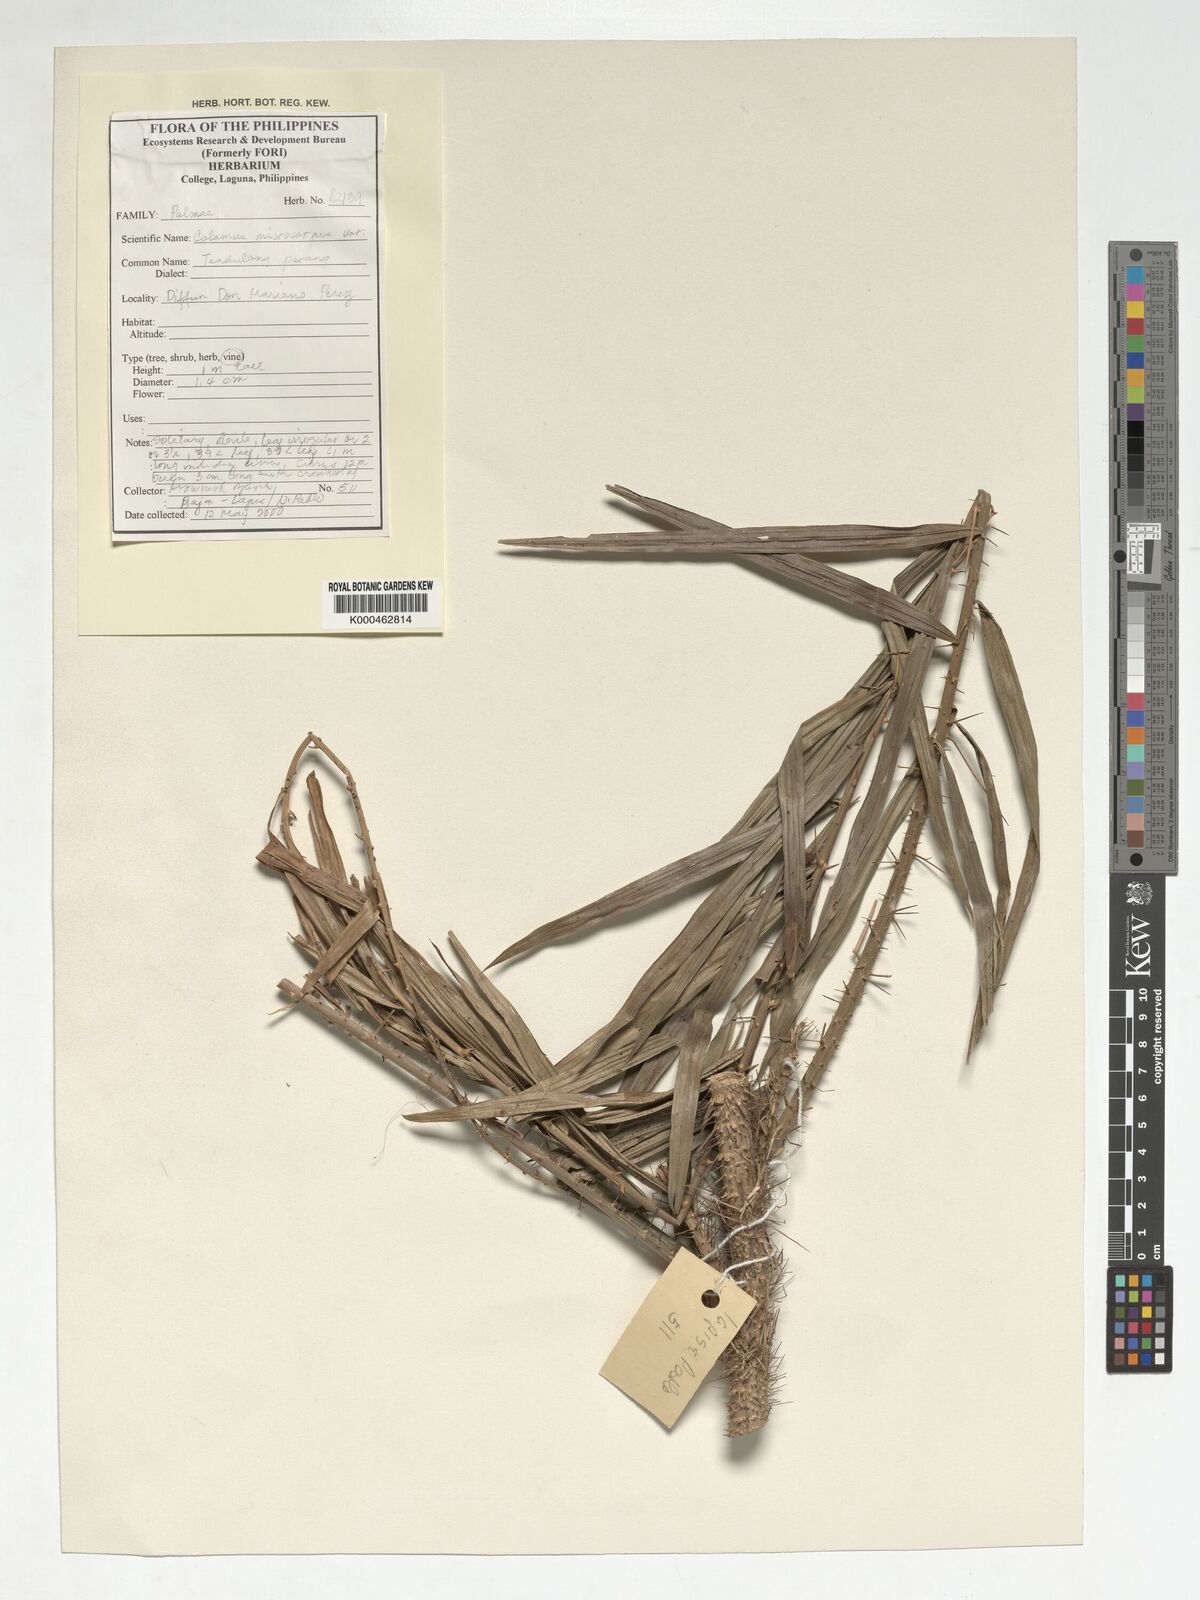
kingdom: Plantae
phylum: Tracheophyta
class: Liliopsida
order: Arecales
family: Arecaceae
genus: Calamus
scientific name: Calamus siphonospathus
